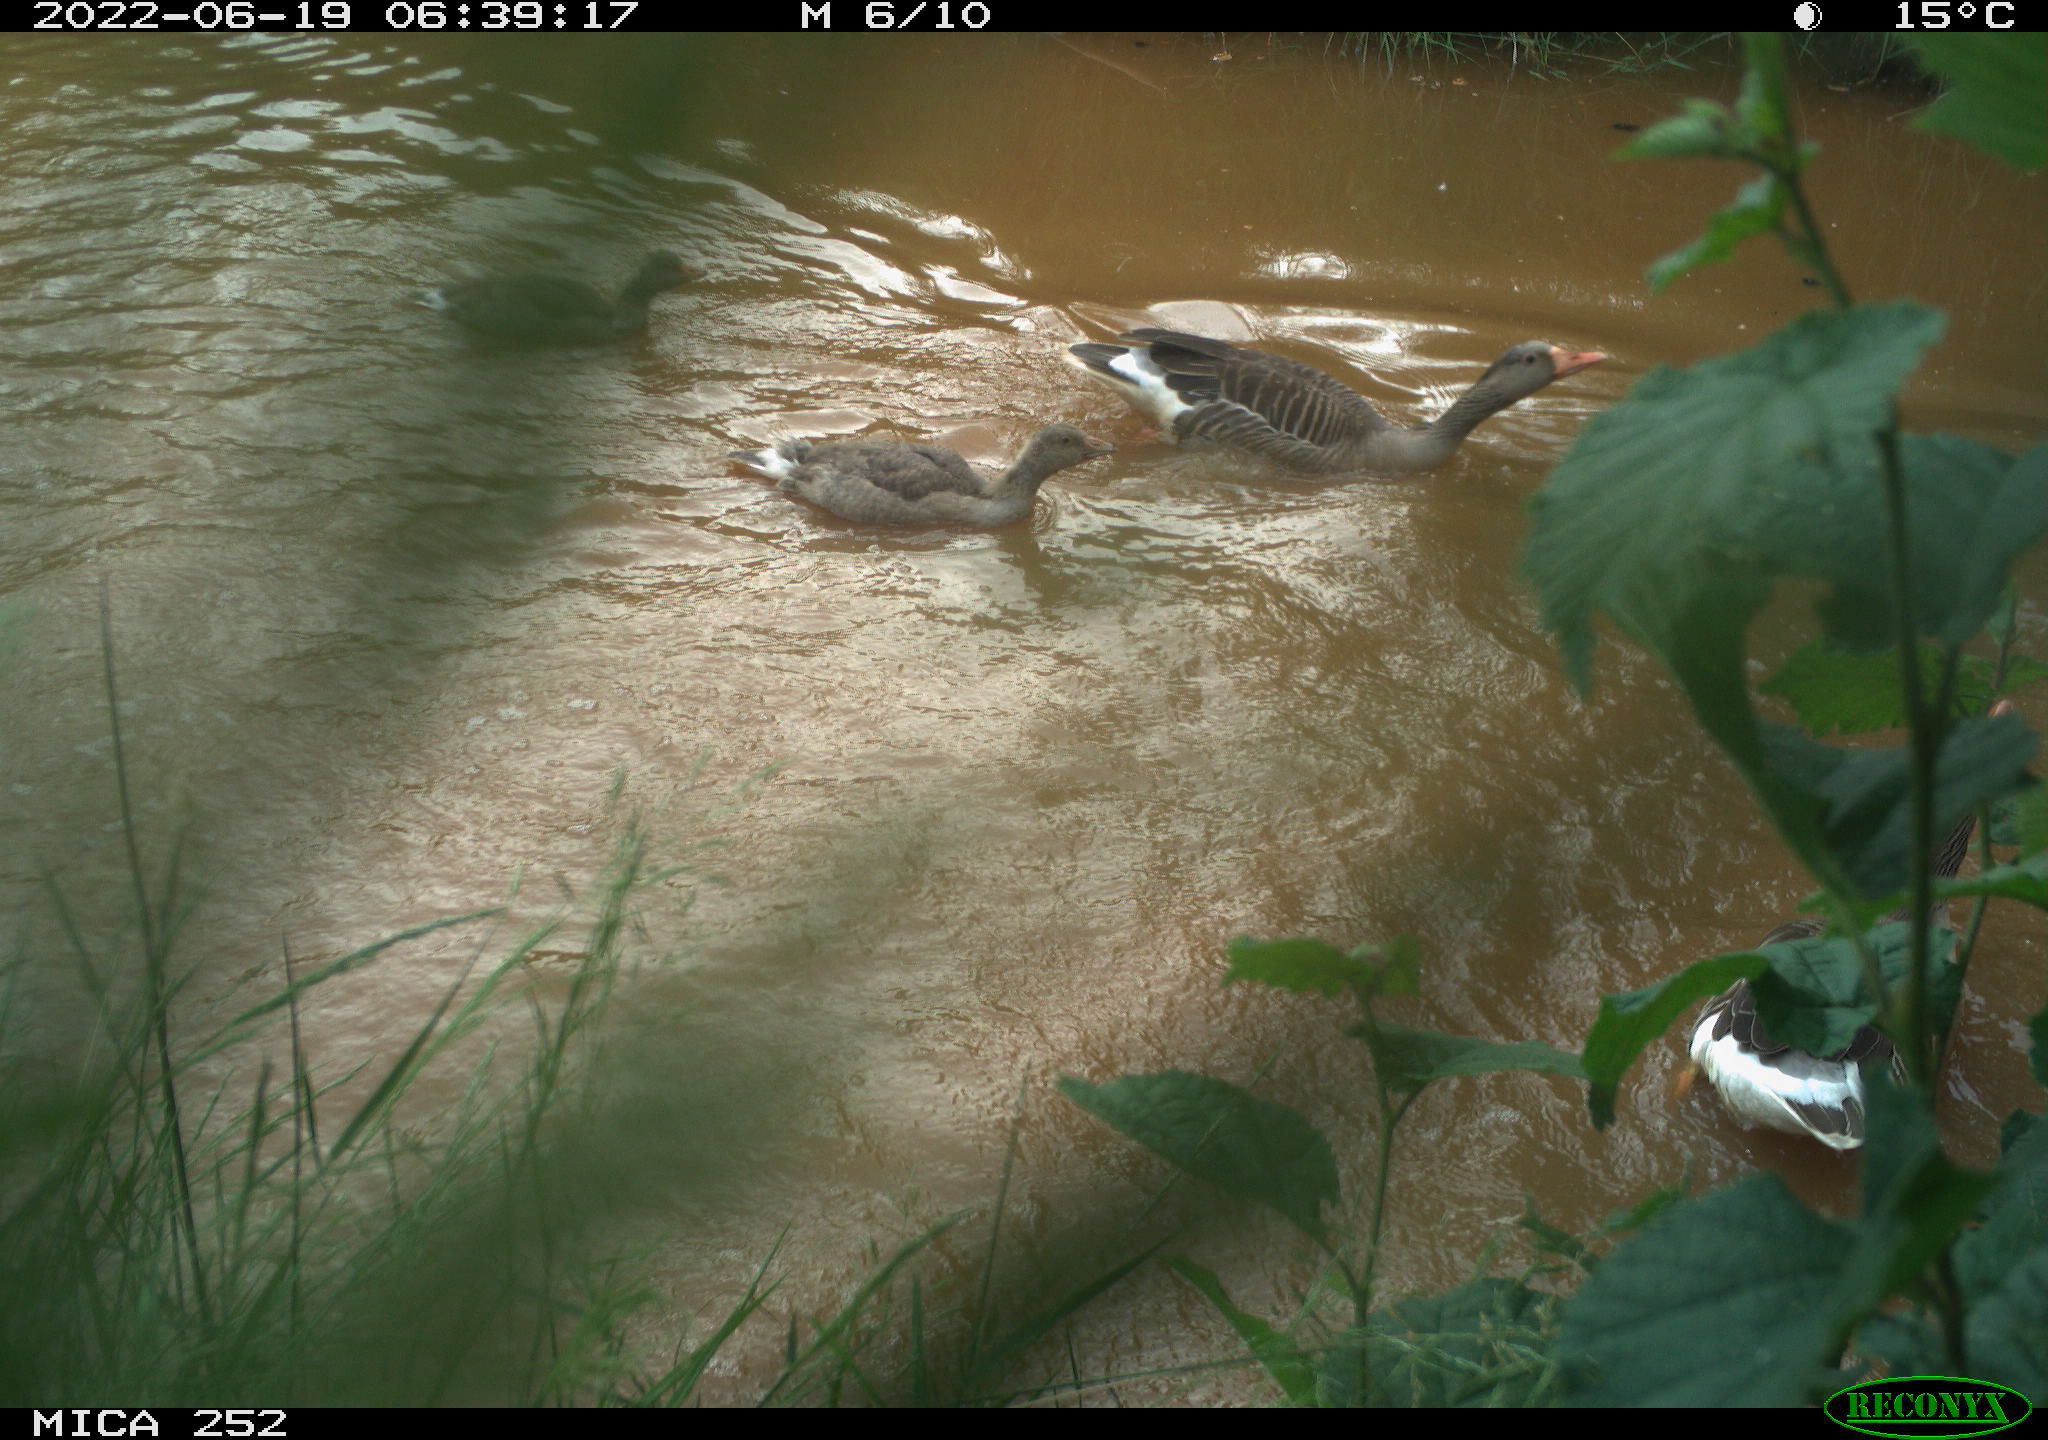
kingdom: Animalia
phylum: Chordata
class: Aves
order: Anseriformes
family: Anatidae
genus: Anser
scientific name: Anser anser
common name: Greylag goose
